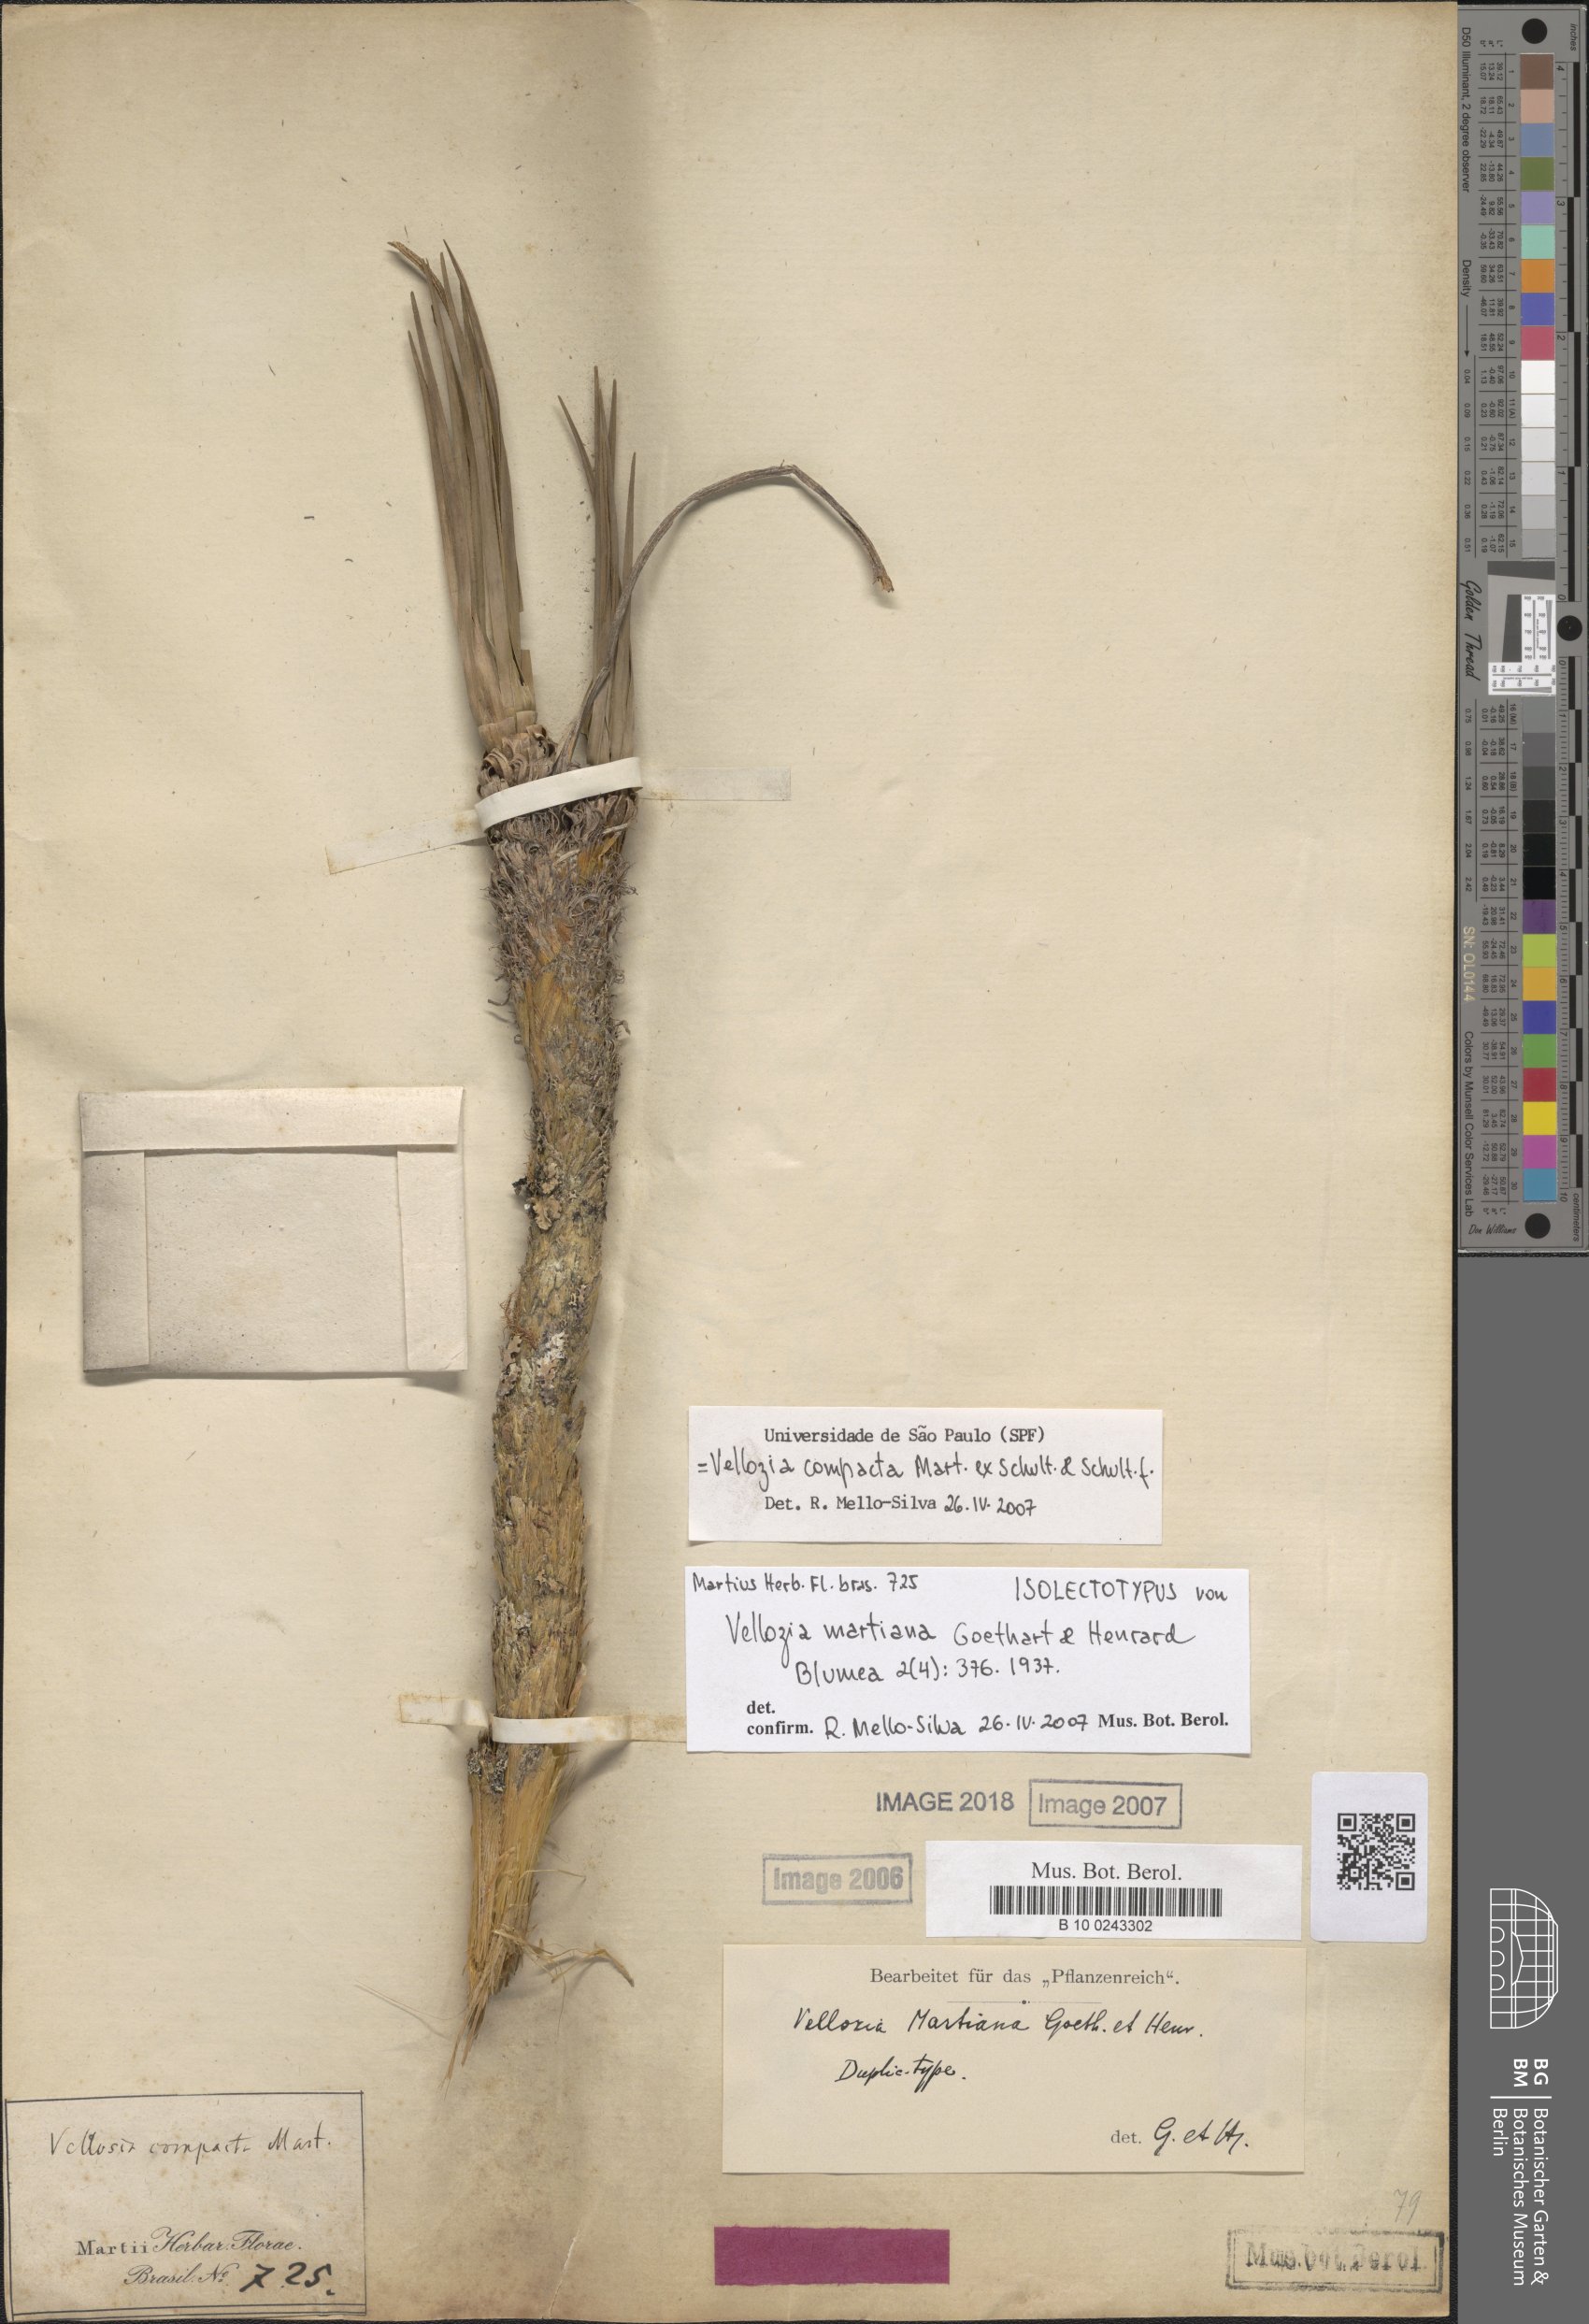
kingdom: Plantae
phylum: Tracheophyta
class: Liliopsida
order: Pandanales
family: Velloziaceae
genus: Vellozia
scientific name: Vellozia compacta
